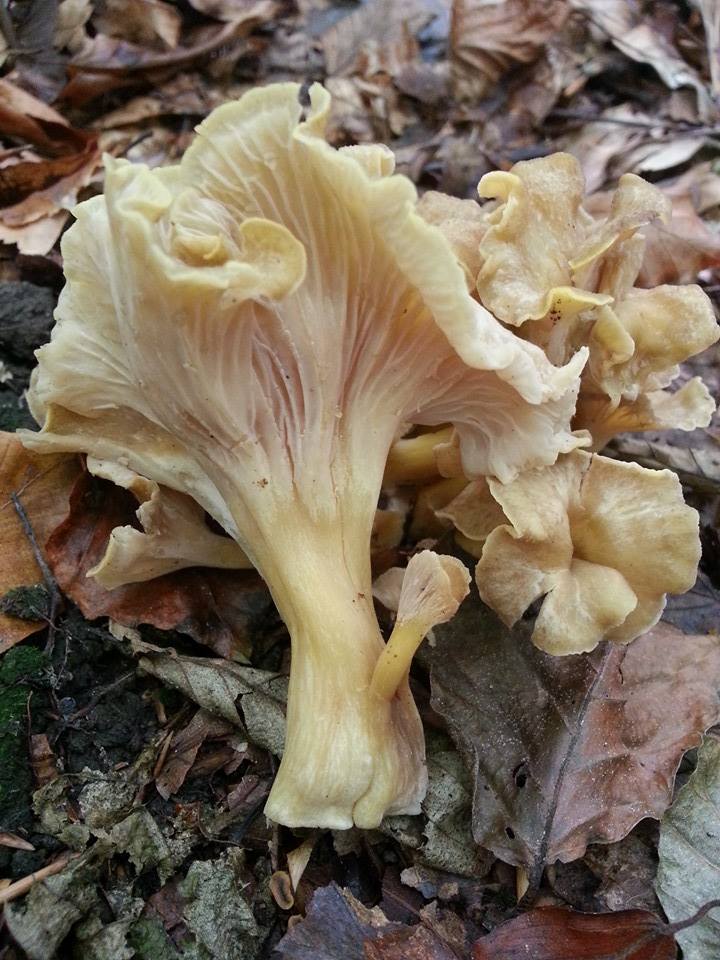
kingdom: Fungi
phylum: Basidiomycota
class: Agaricomycetes
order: Cantharellales
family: Hydnaceae
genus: Cantharellus
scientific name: Cantharellus melanoxeros
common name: sværtende kantarel
